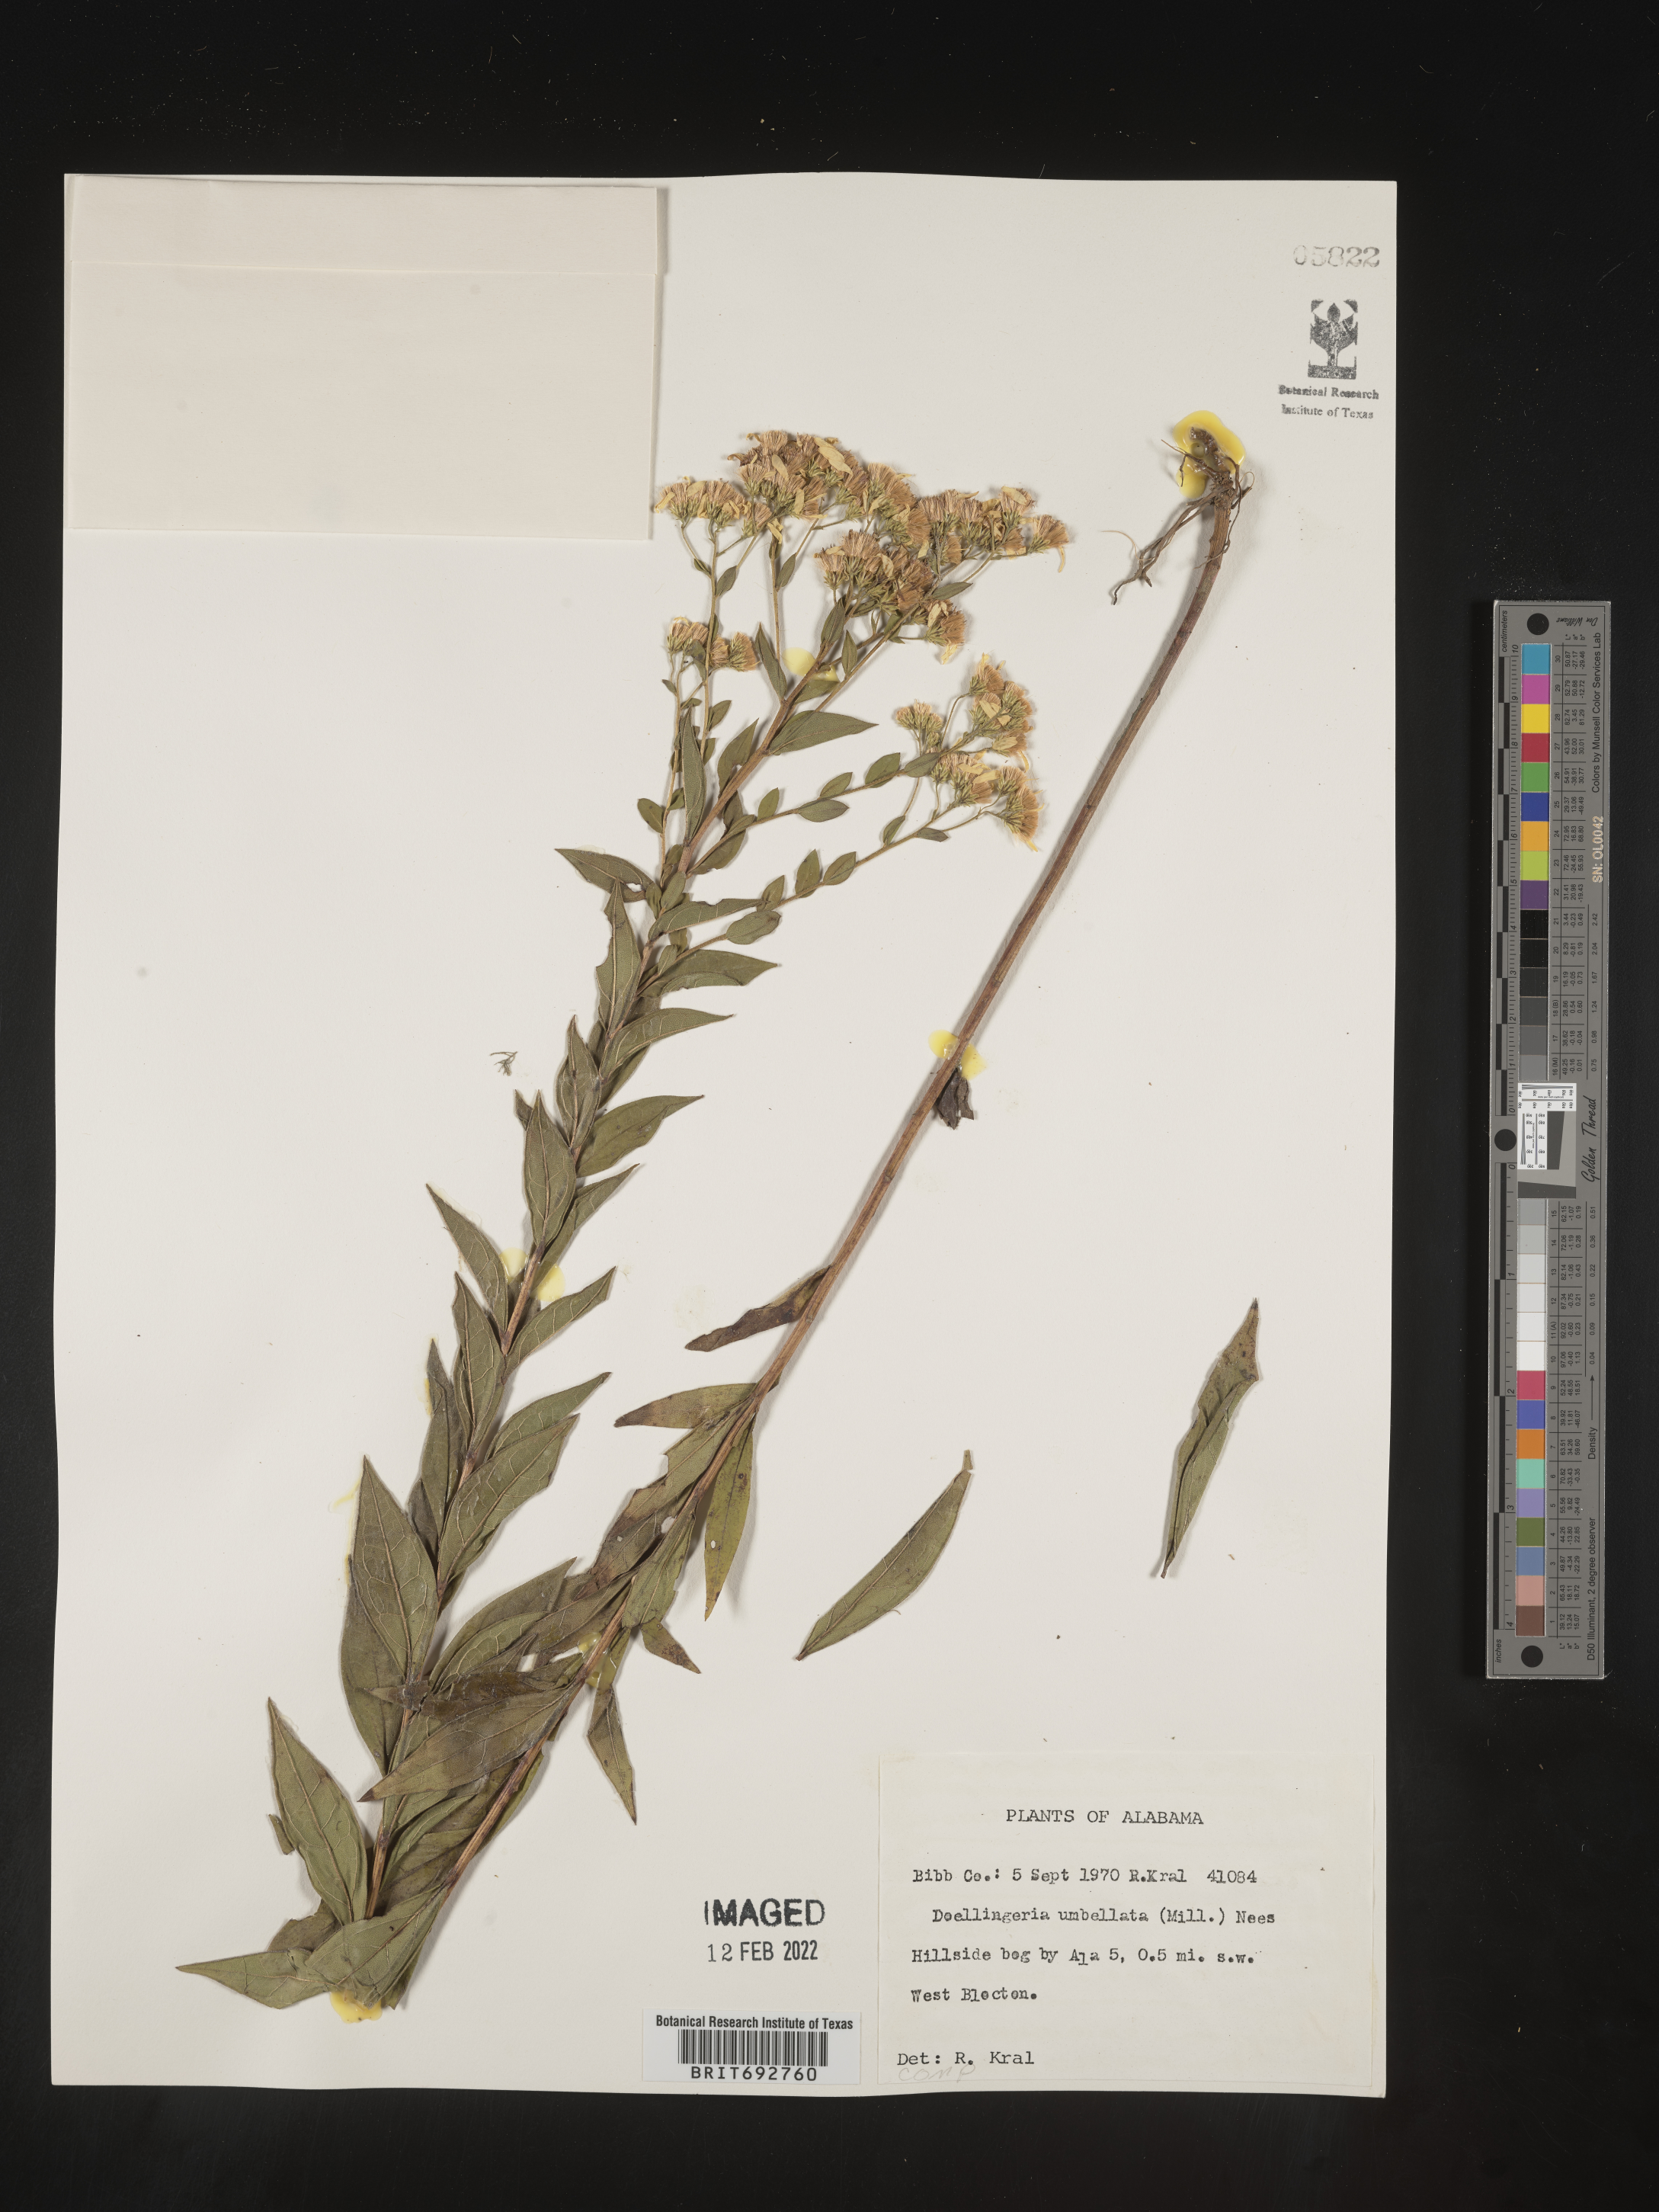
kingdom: Plantae
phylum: Tracheophyta
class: Magnoliopsida
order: Asterales
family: Asteraceae
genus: Doellingeria
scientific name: Doellingeria sericocarpoides
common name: Southern tall flat-top aster
